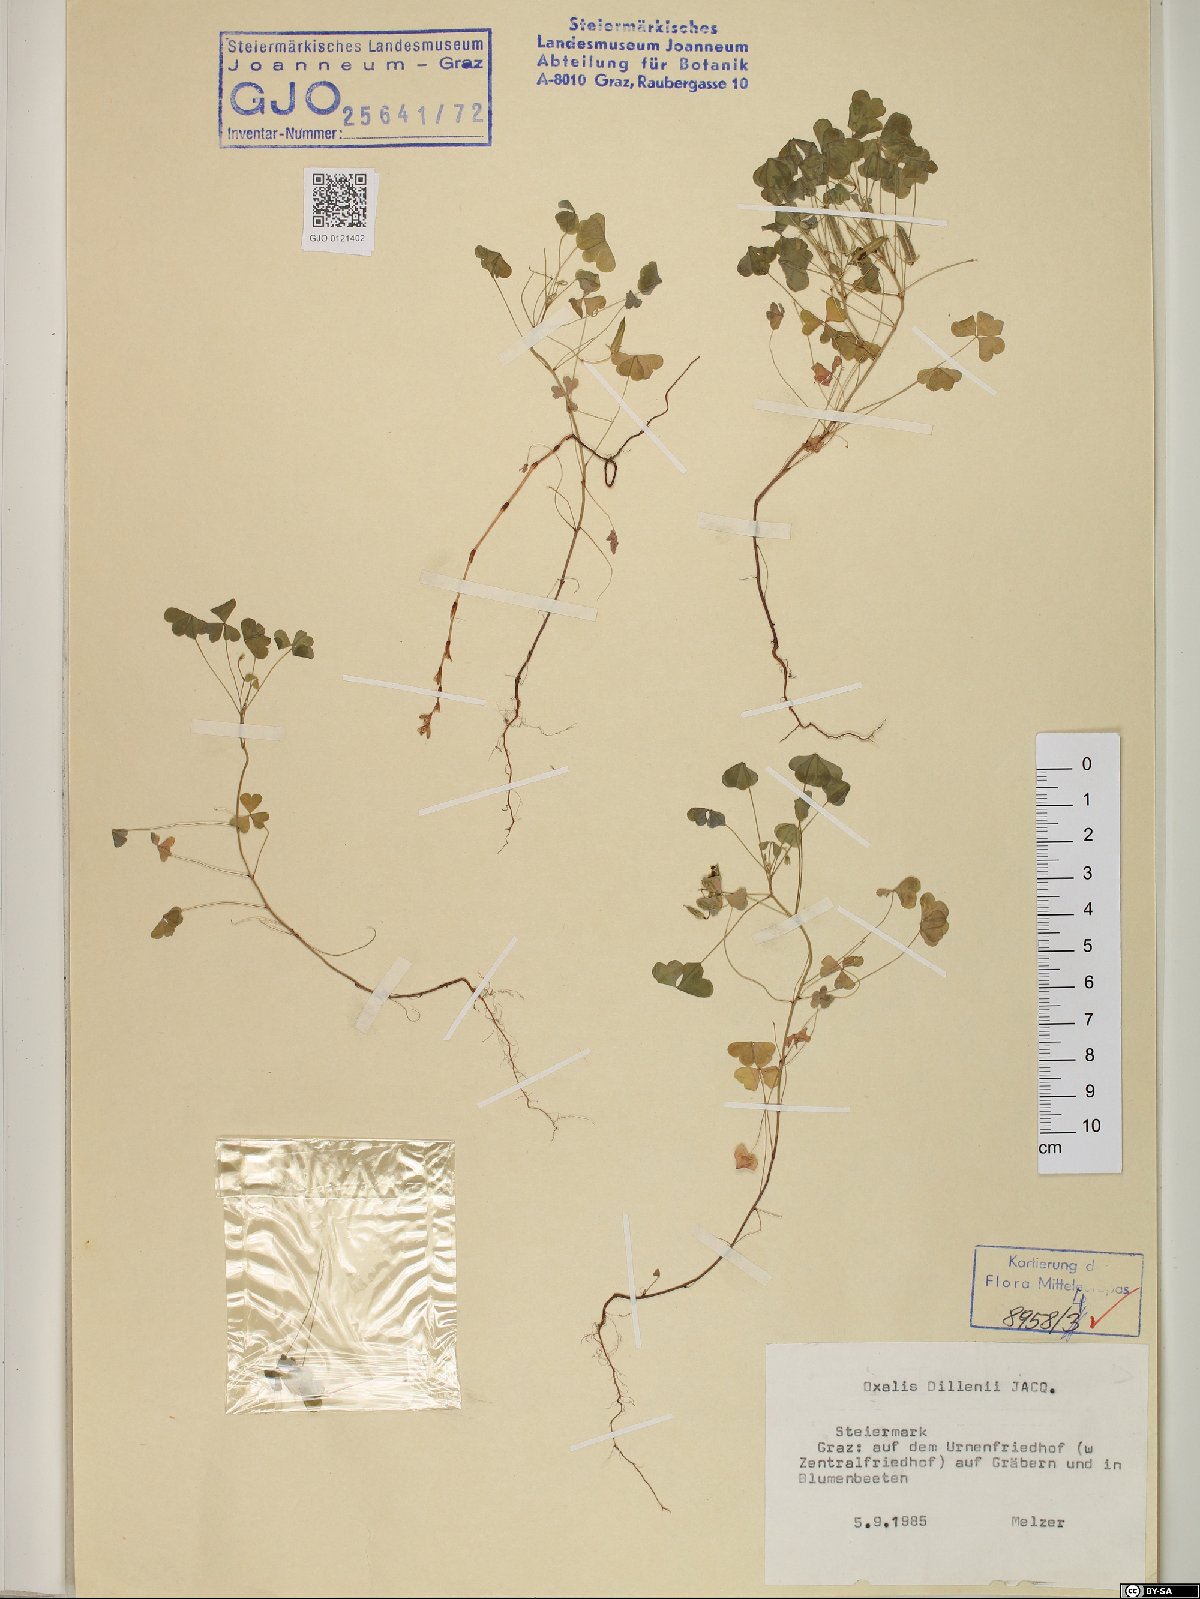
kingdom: Plantae
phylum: Tracheophyta
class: Magnoliopsida
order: Oxalidales
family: Oxalidaceae
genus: Oxalis
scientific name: Oxalis dillenii
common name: Sussex yellow-sorrel
